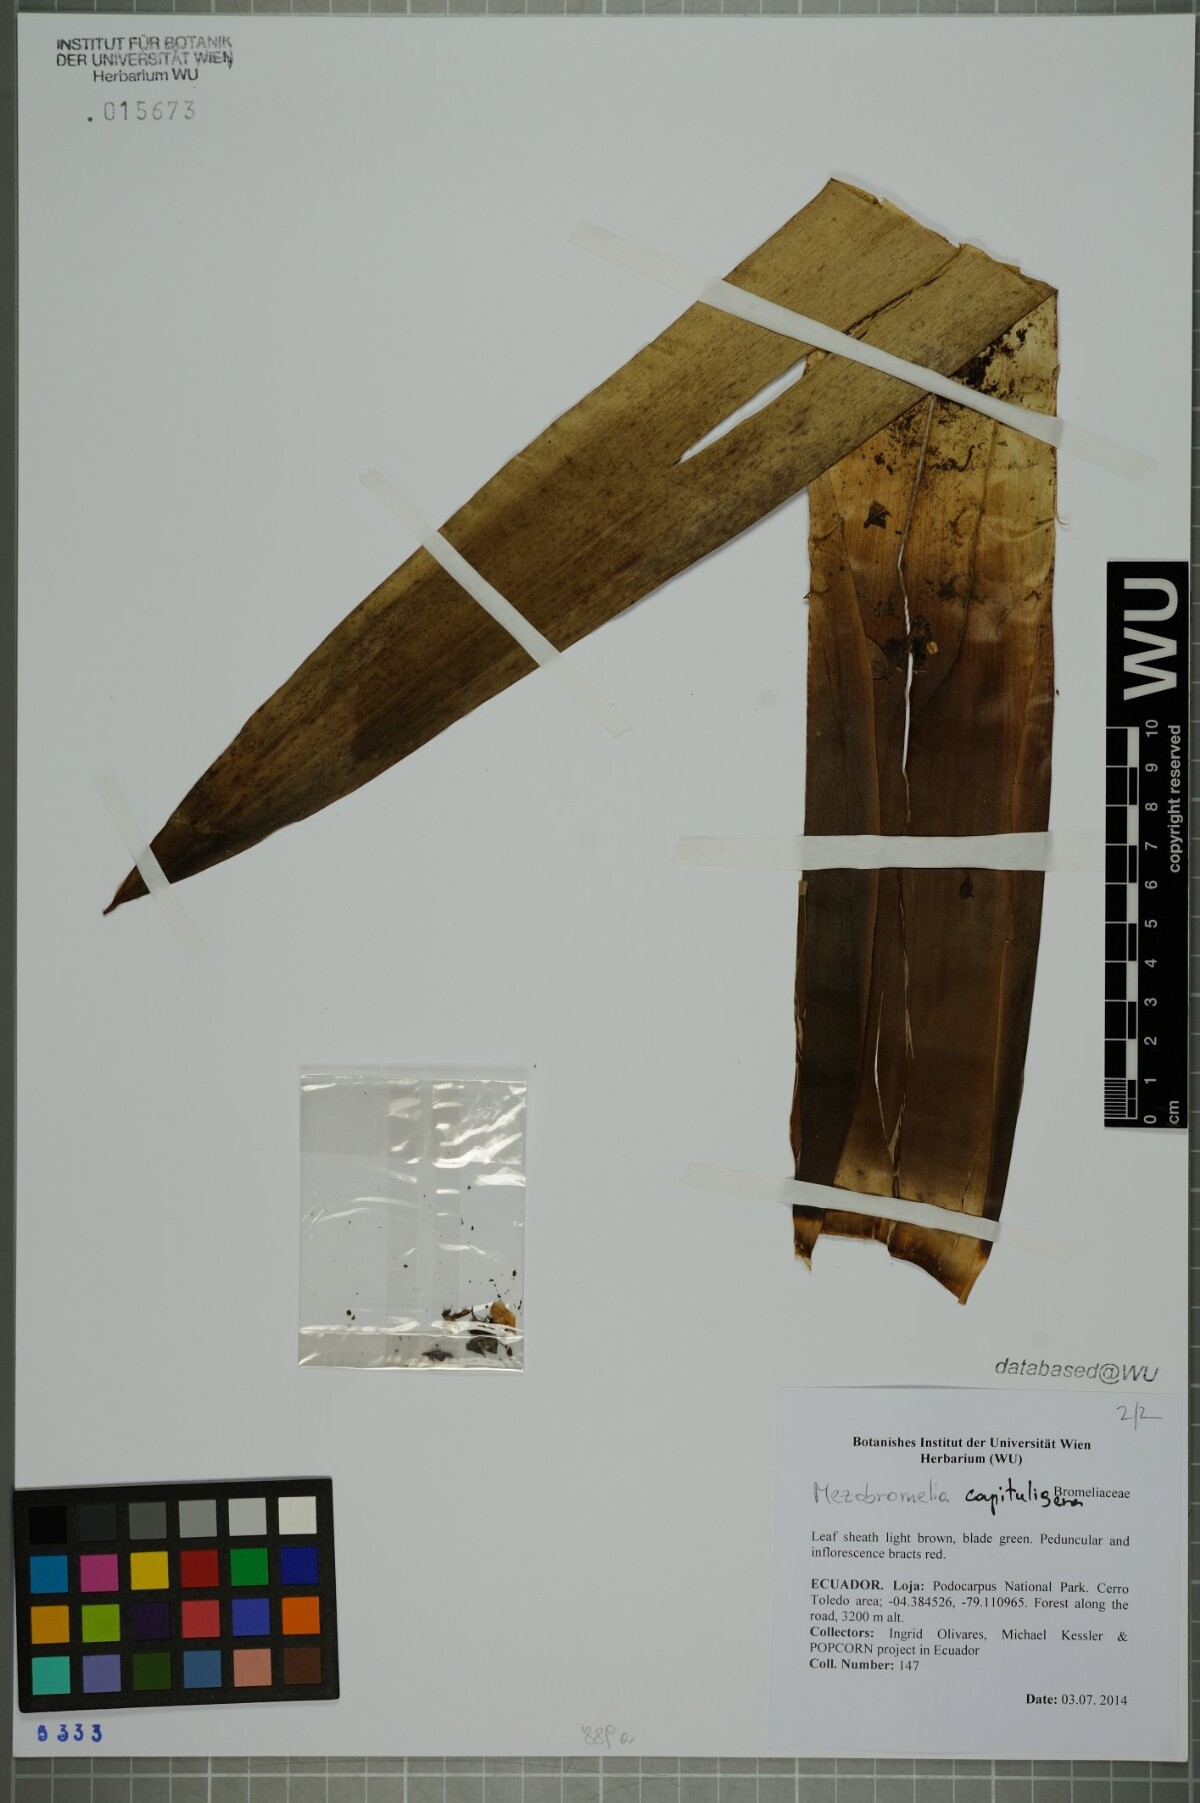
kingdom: Plantae
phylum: Tracheophyta
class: Liliopsida
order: Poales
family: Bromeliaceae
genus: Cipuropsis
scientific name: Cipuropsis capituligera
